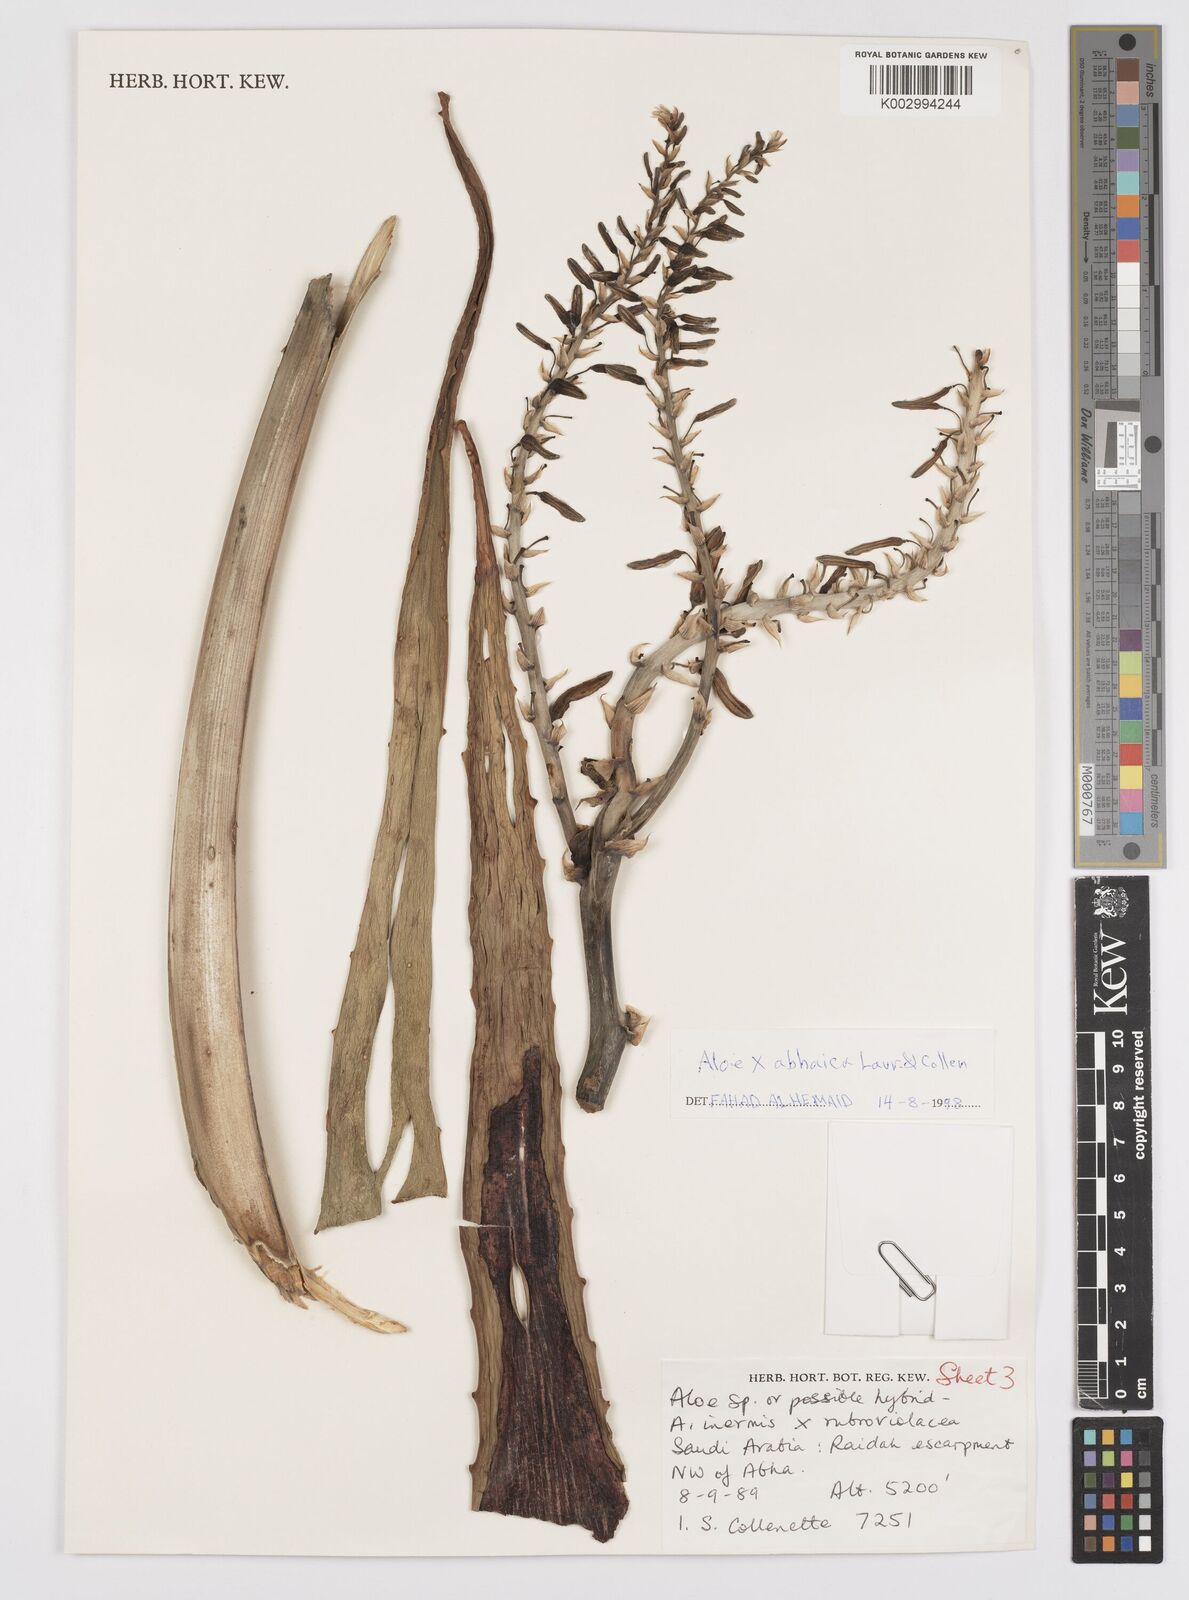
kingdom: Plantae
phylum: Tracheophyta
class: Liliopsida
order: Asparagales
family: Asphodelaceae
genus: Aloe
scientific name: Aloe
